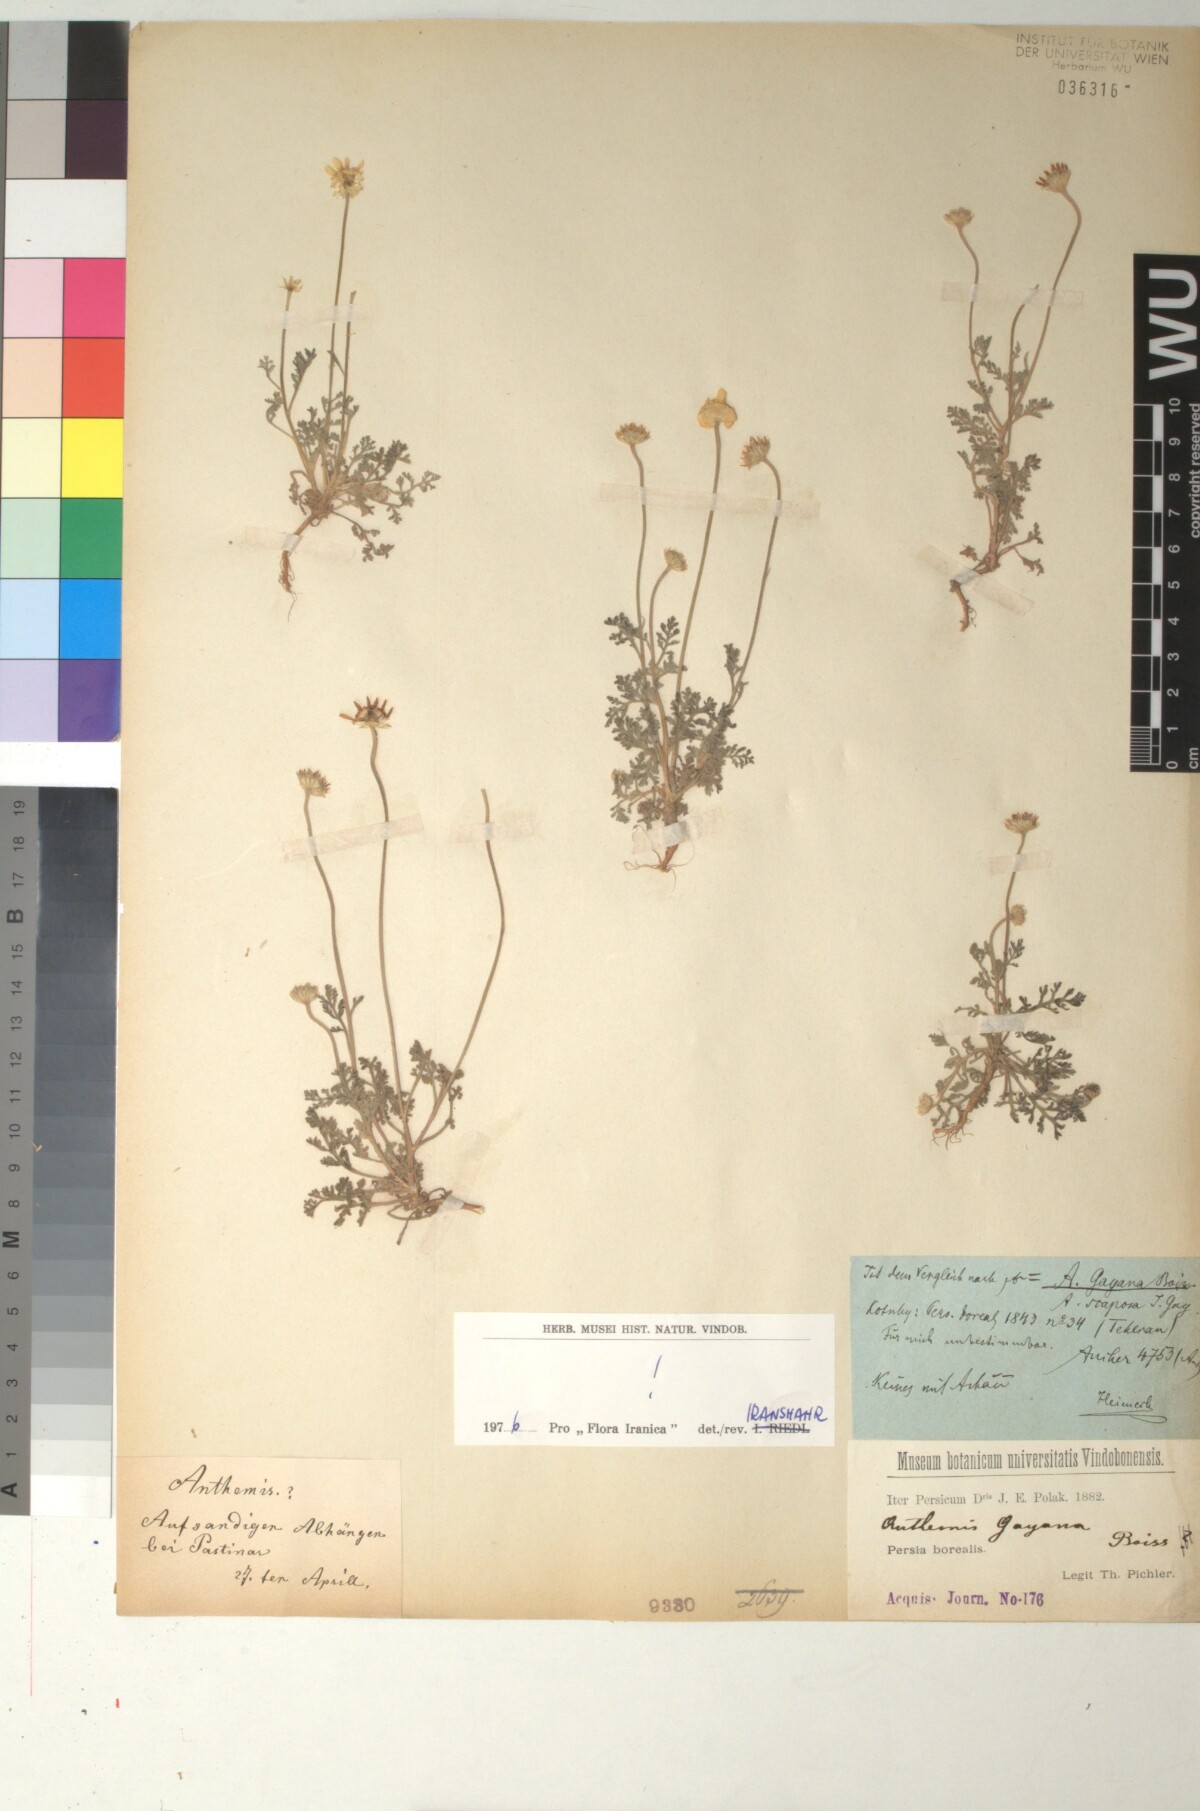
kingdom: Plantae
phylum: Tracheophyta
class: Magnoliopsida
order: Asterales
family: Asteraceae
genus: Anthemis
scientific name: Anthemis gayana
